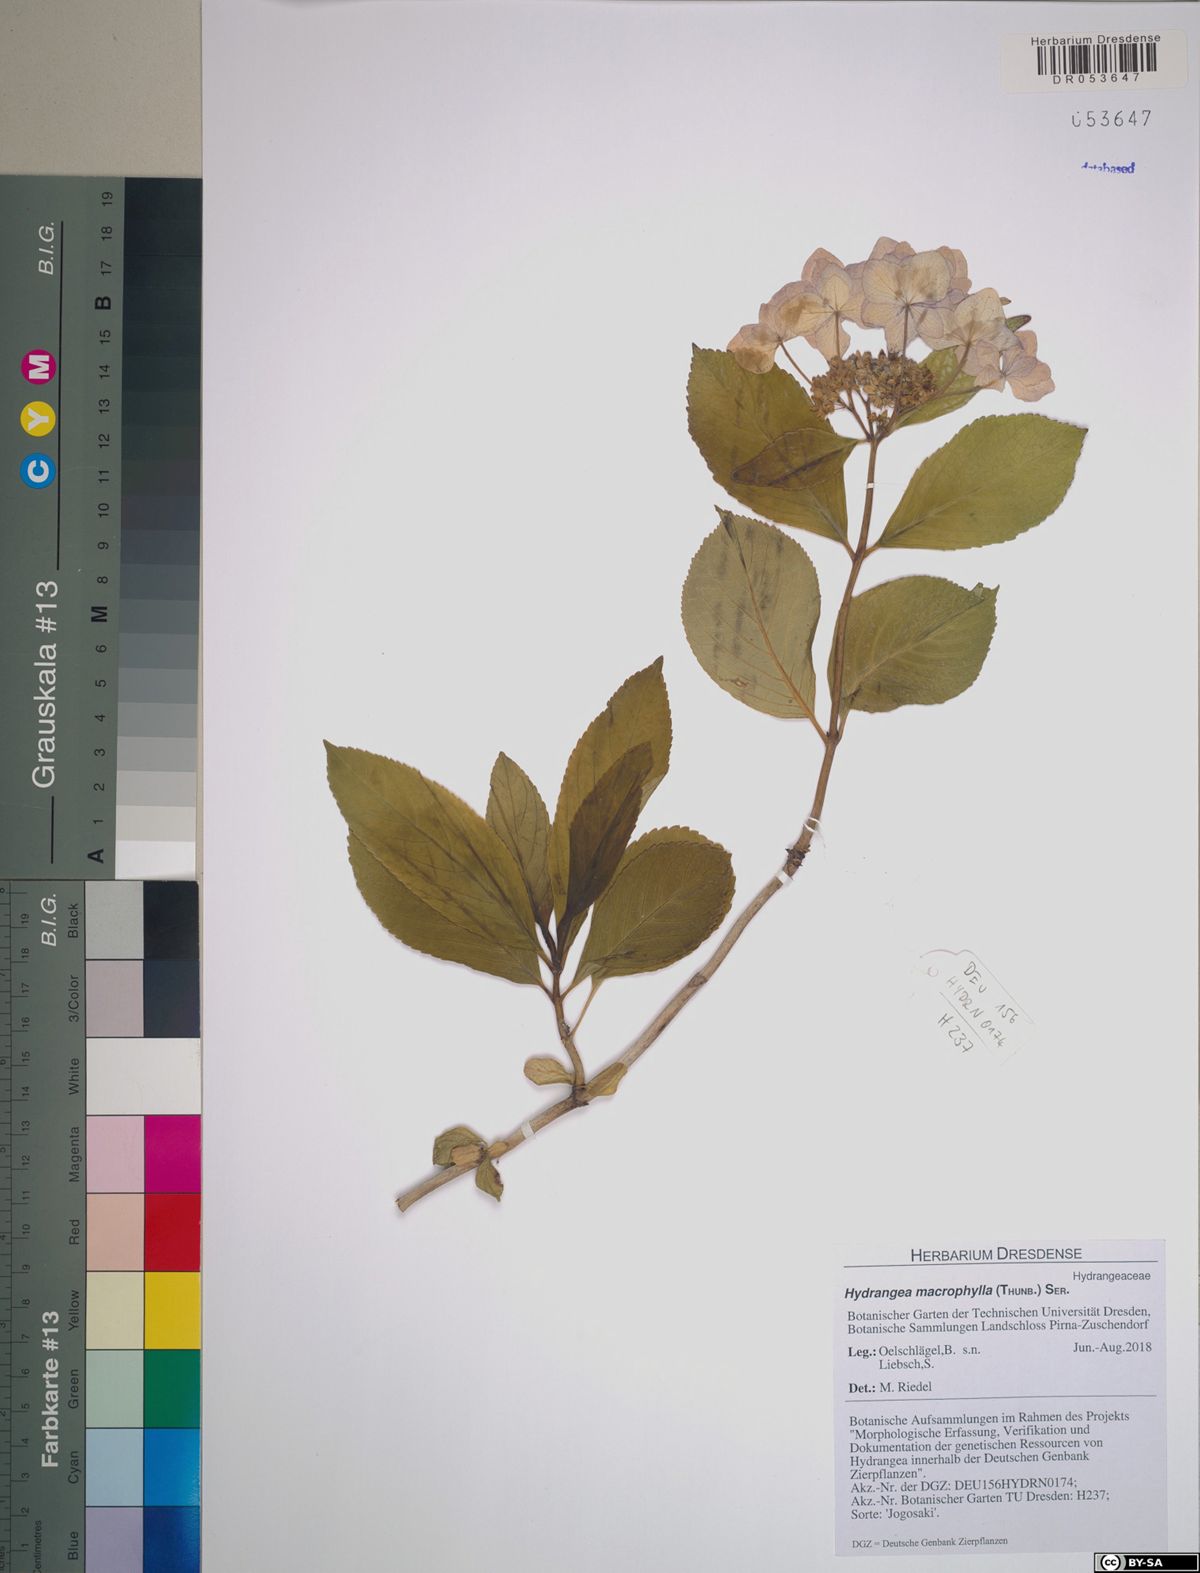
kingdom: Plantae
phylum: Tracheophyta
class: Magnoliopsida
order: Cornales
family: Hydrangeaceae
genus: Hydrangea
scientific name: Hydrangea macrophylla
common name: Hydrangea
